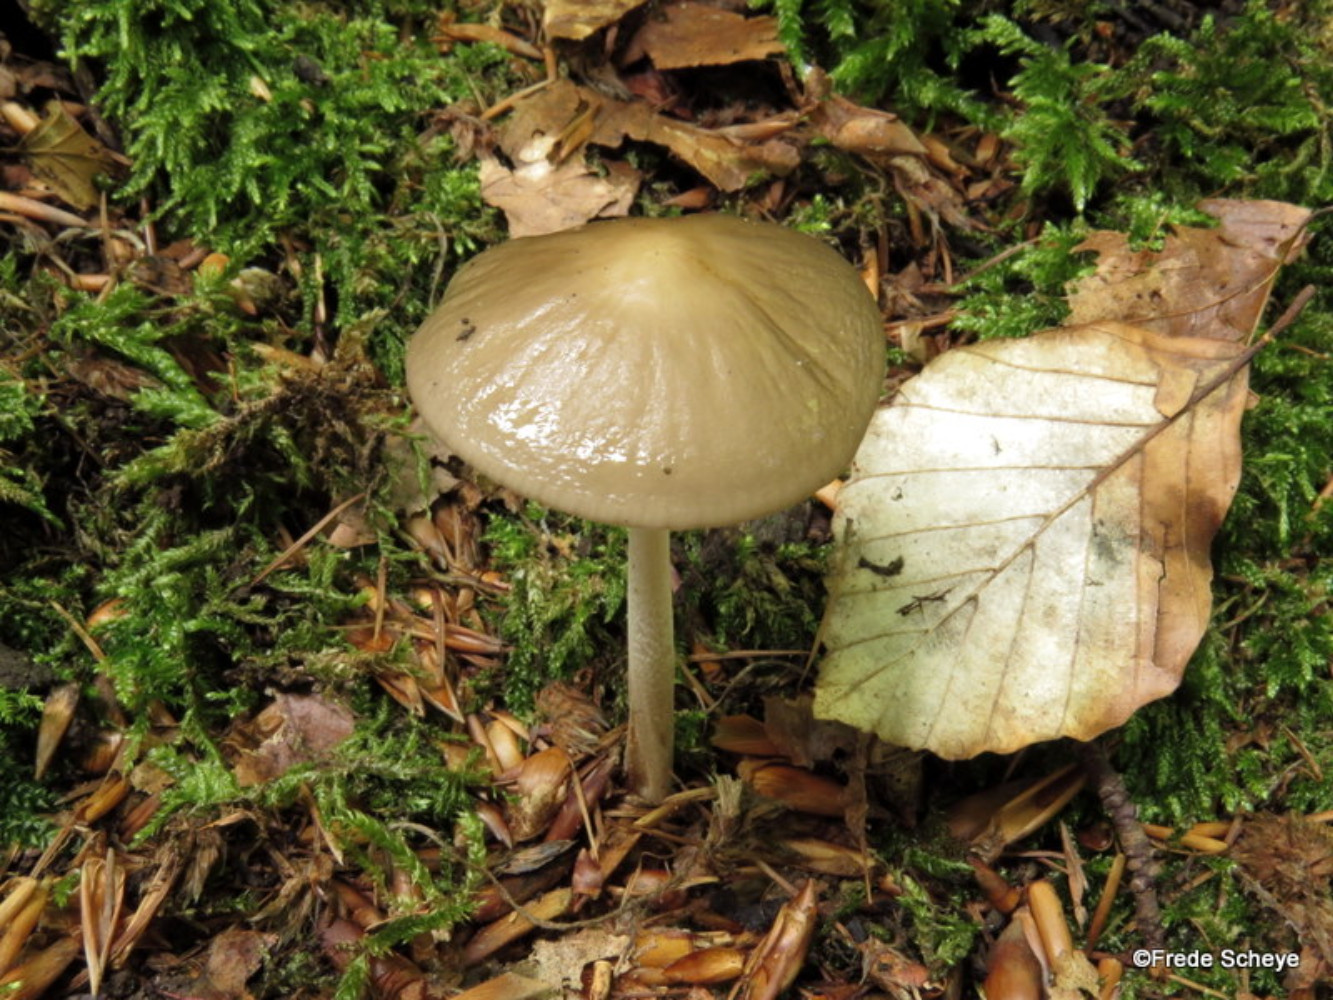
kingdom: Fungi
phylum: Basidiomycota
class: Agaricomycetes
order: Agaricales
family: Physalacriaceae
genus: Hymenopellis
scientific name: Hymenopellis radicata
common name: almindelig pælerodshat
